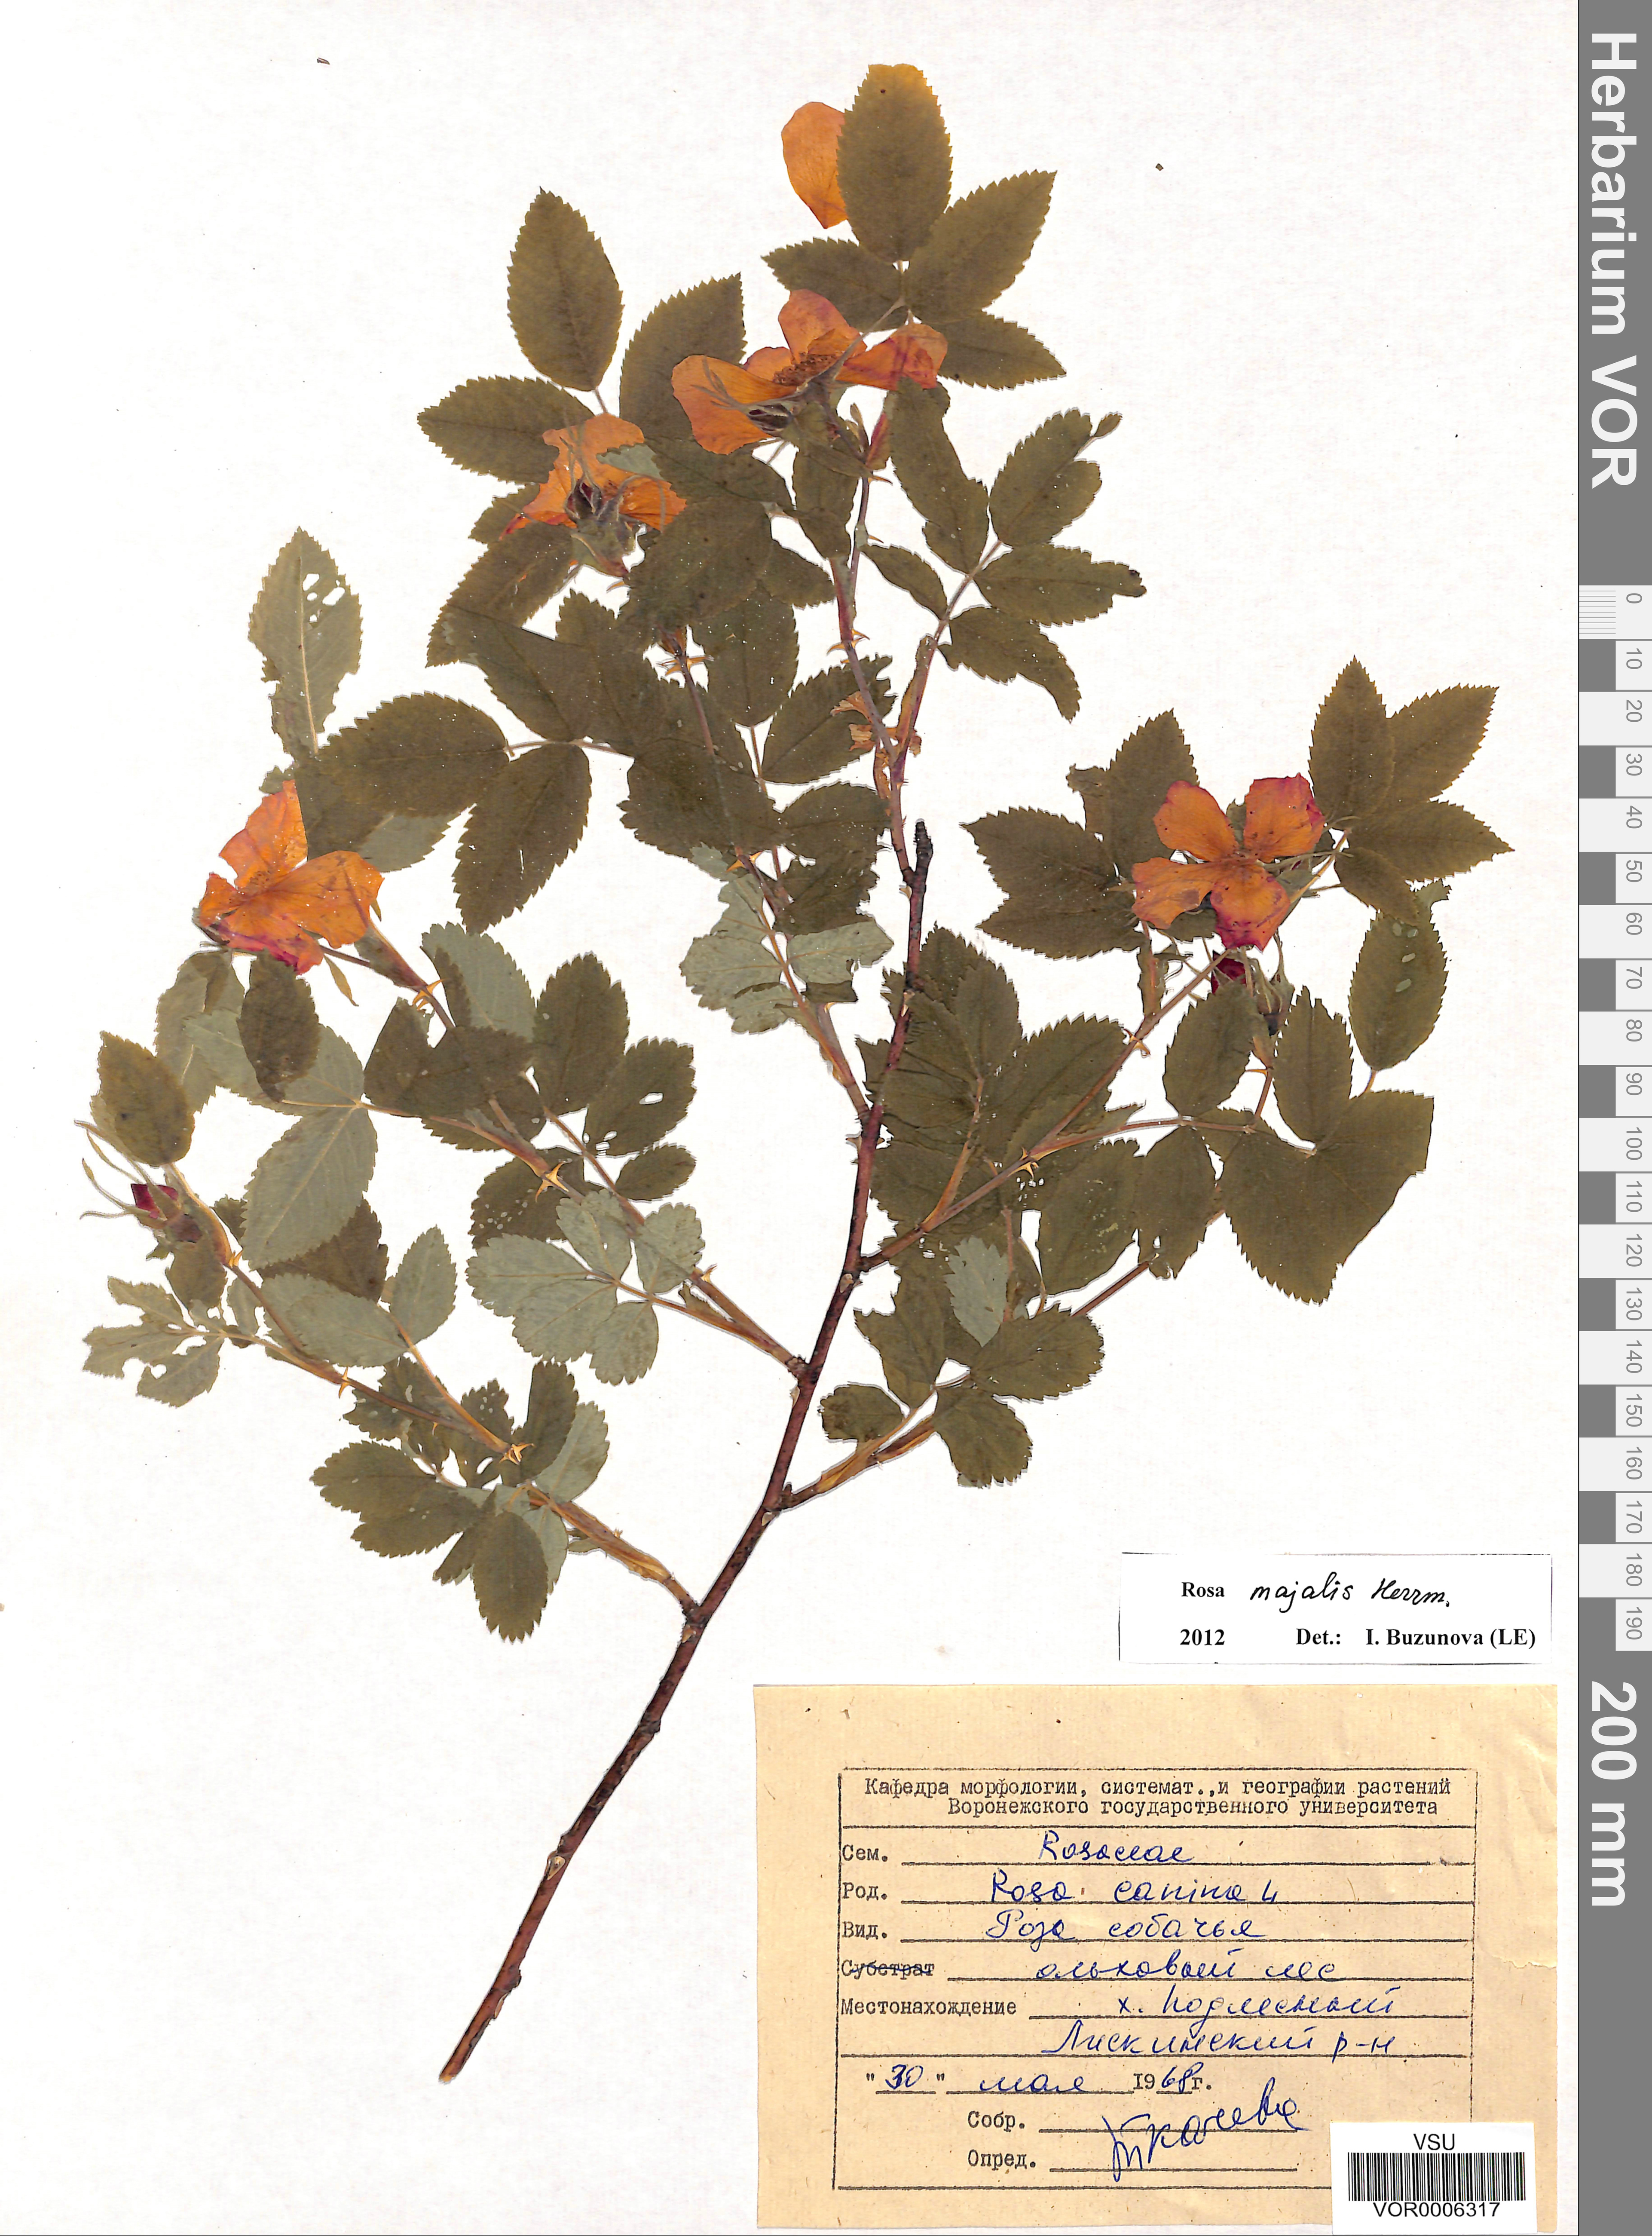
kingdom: Plantae
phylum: Tracheophyta
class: Magnoliopsida
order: Rosales
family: Rosaceae
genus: Rosa
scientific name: Rosa majalis
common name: Cinnamon rose
